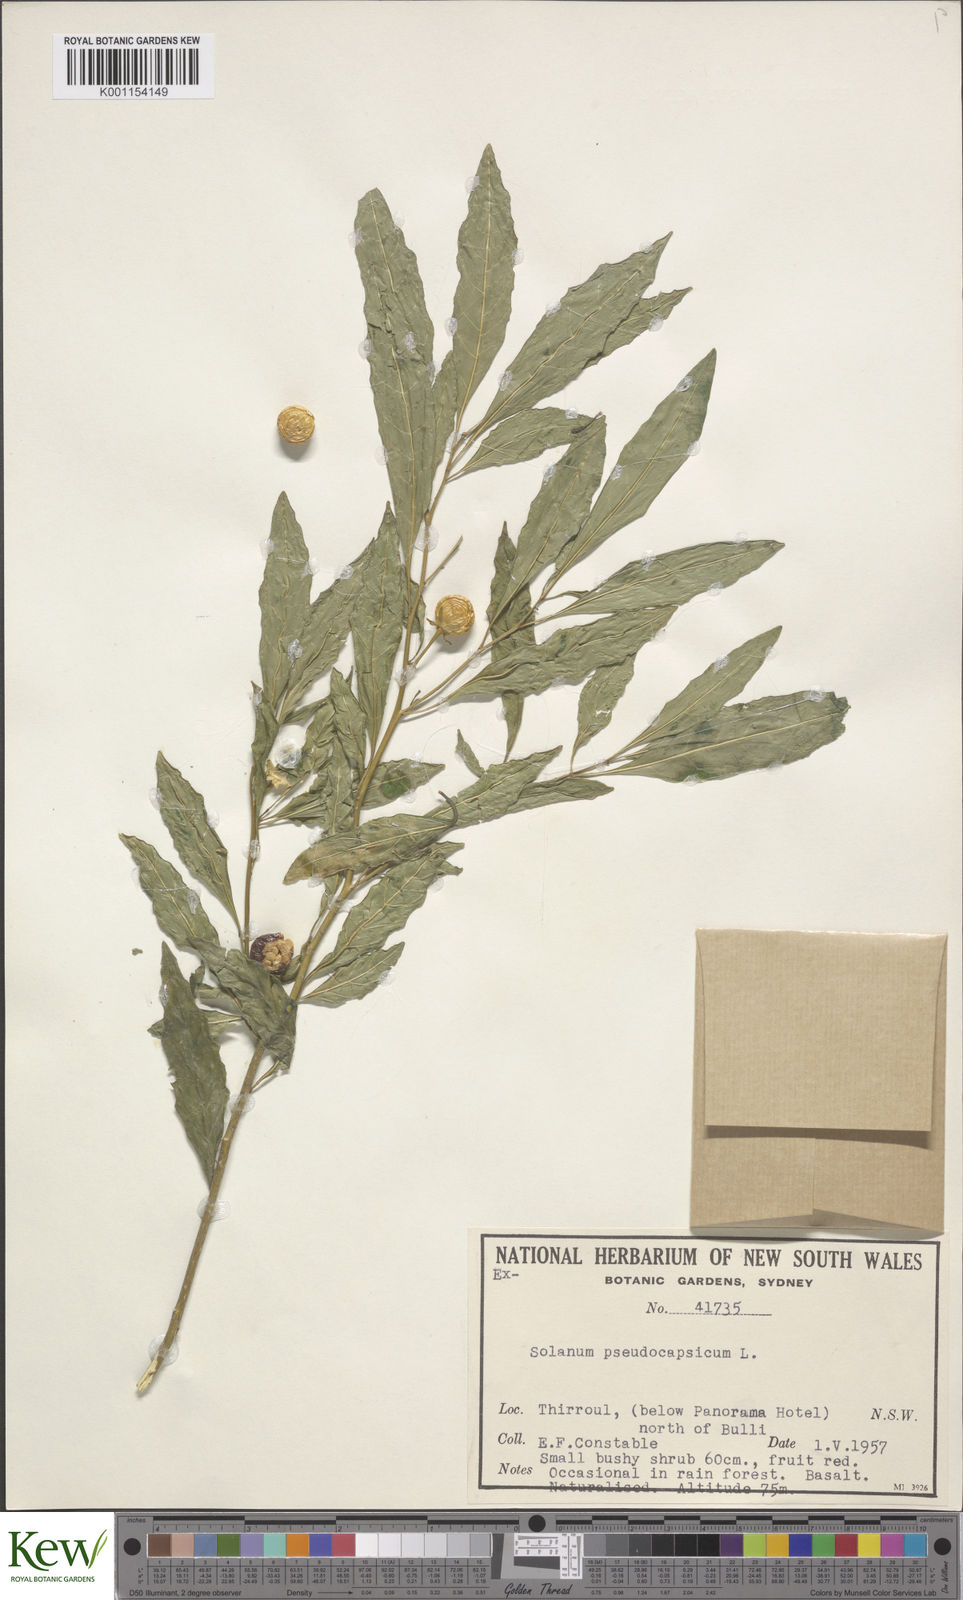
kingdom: Plantae
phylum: Tracheophyta
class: Magnoliopsida
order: Solanales
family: Solanaceae
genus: Solanum
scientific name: Solanum pseudocapsicum
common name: Jerusalem cherry
